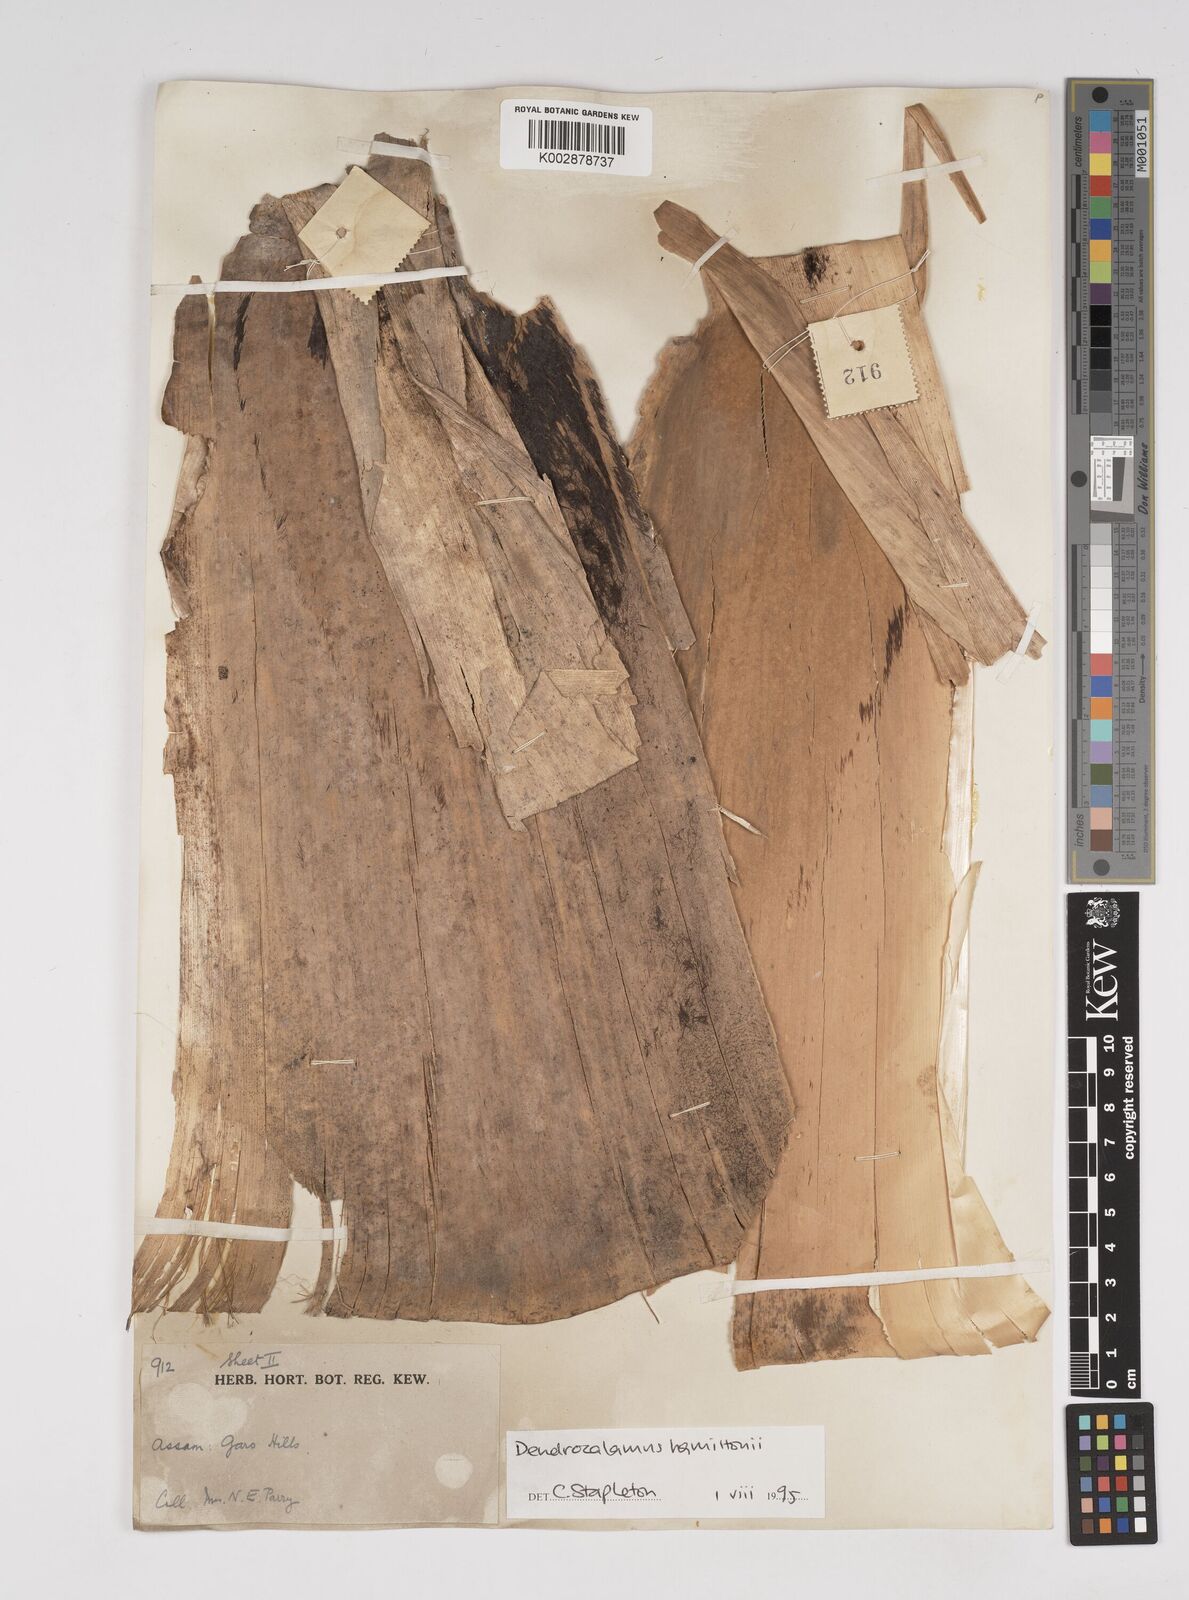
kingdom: Plantae
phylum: Tracheophyta
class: Liliopsida
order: Poales
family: Poaceae
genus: Dendrocalamus
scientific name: Dendrocalamus hamiltonii
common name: Tama bamboo
